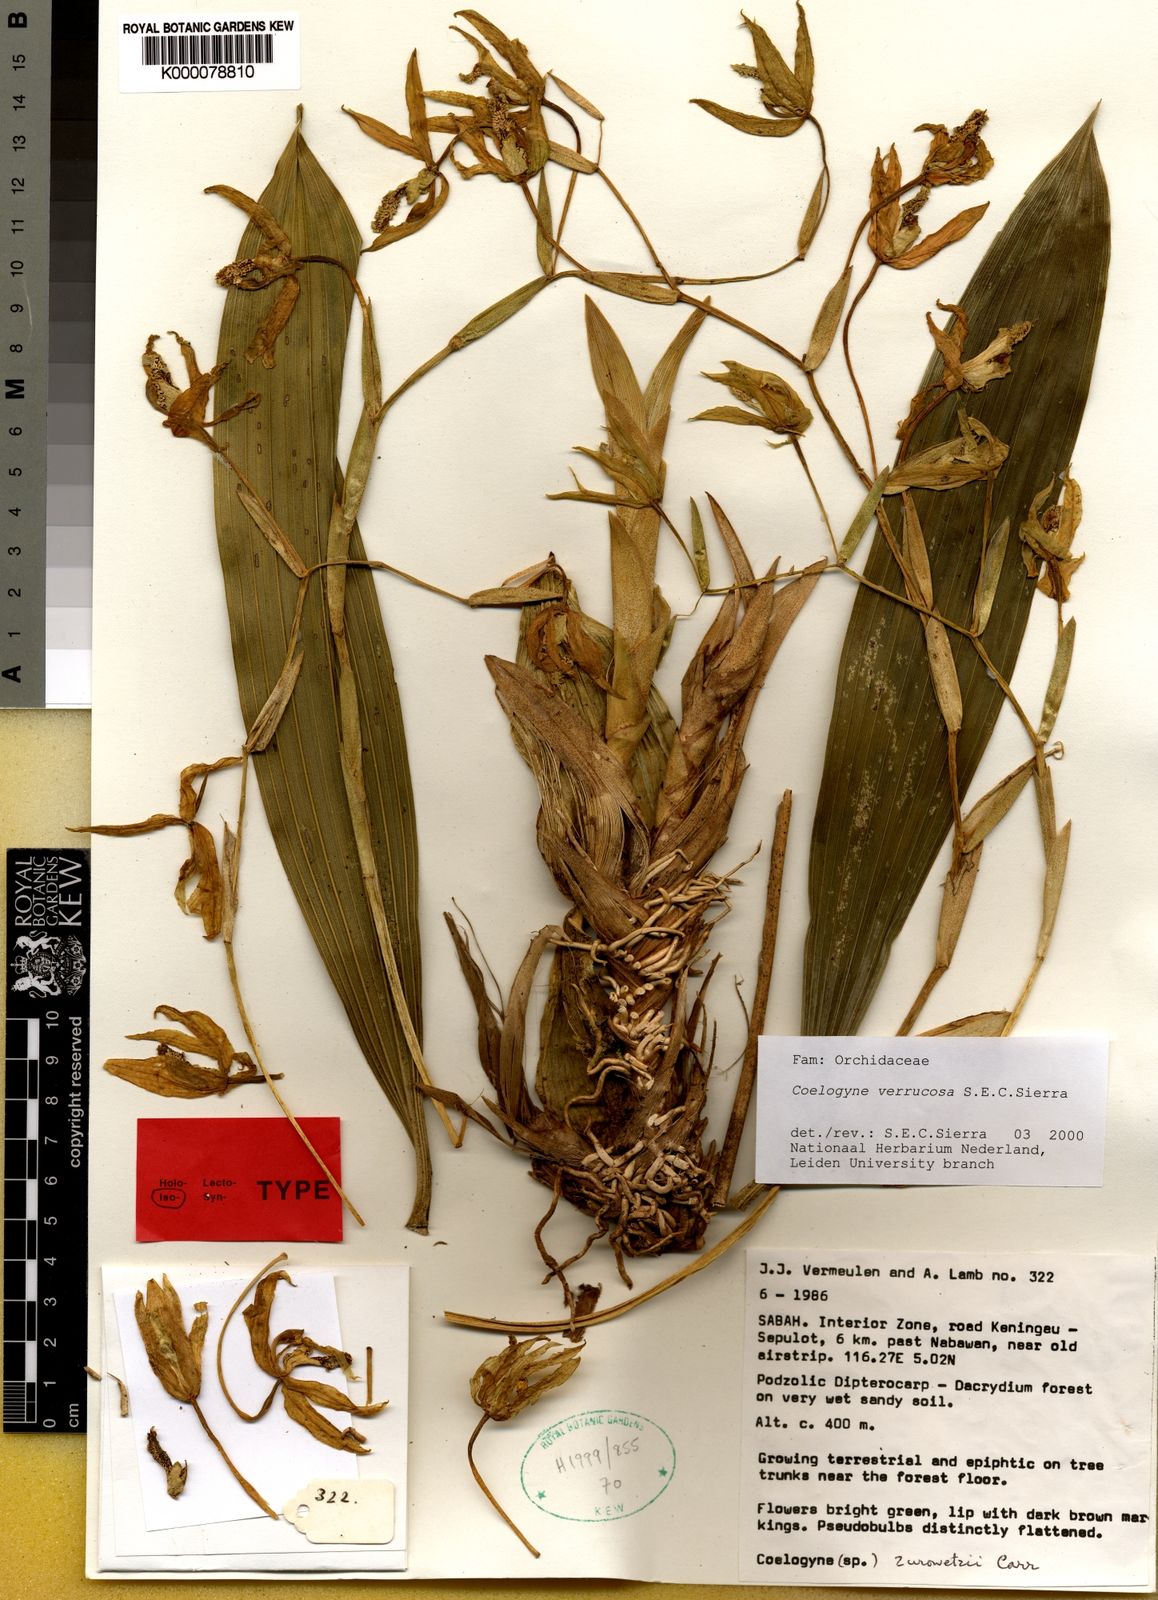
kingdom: Plantae
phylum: Tracheophyta
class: Liliopsida
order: Asparagales
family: Orchidaceae
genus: Coelogyne
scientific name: Coelogyne verrucosa
